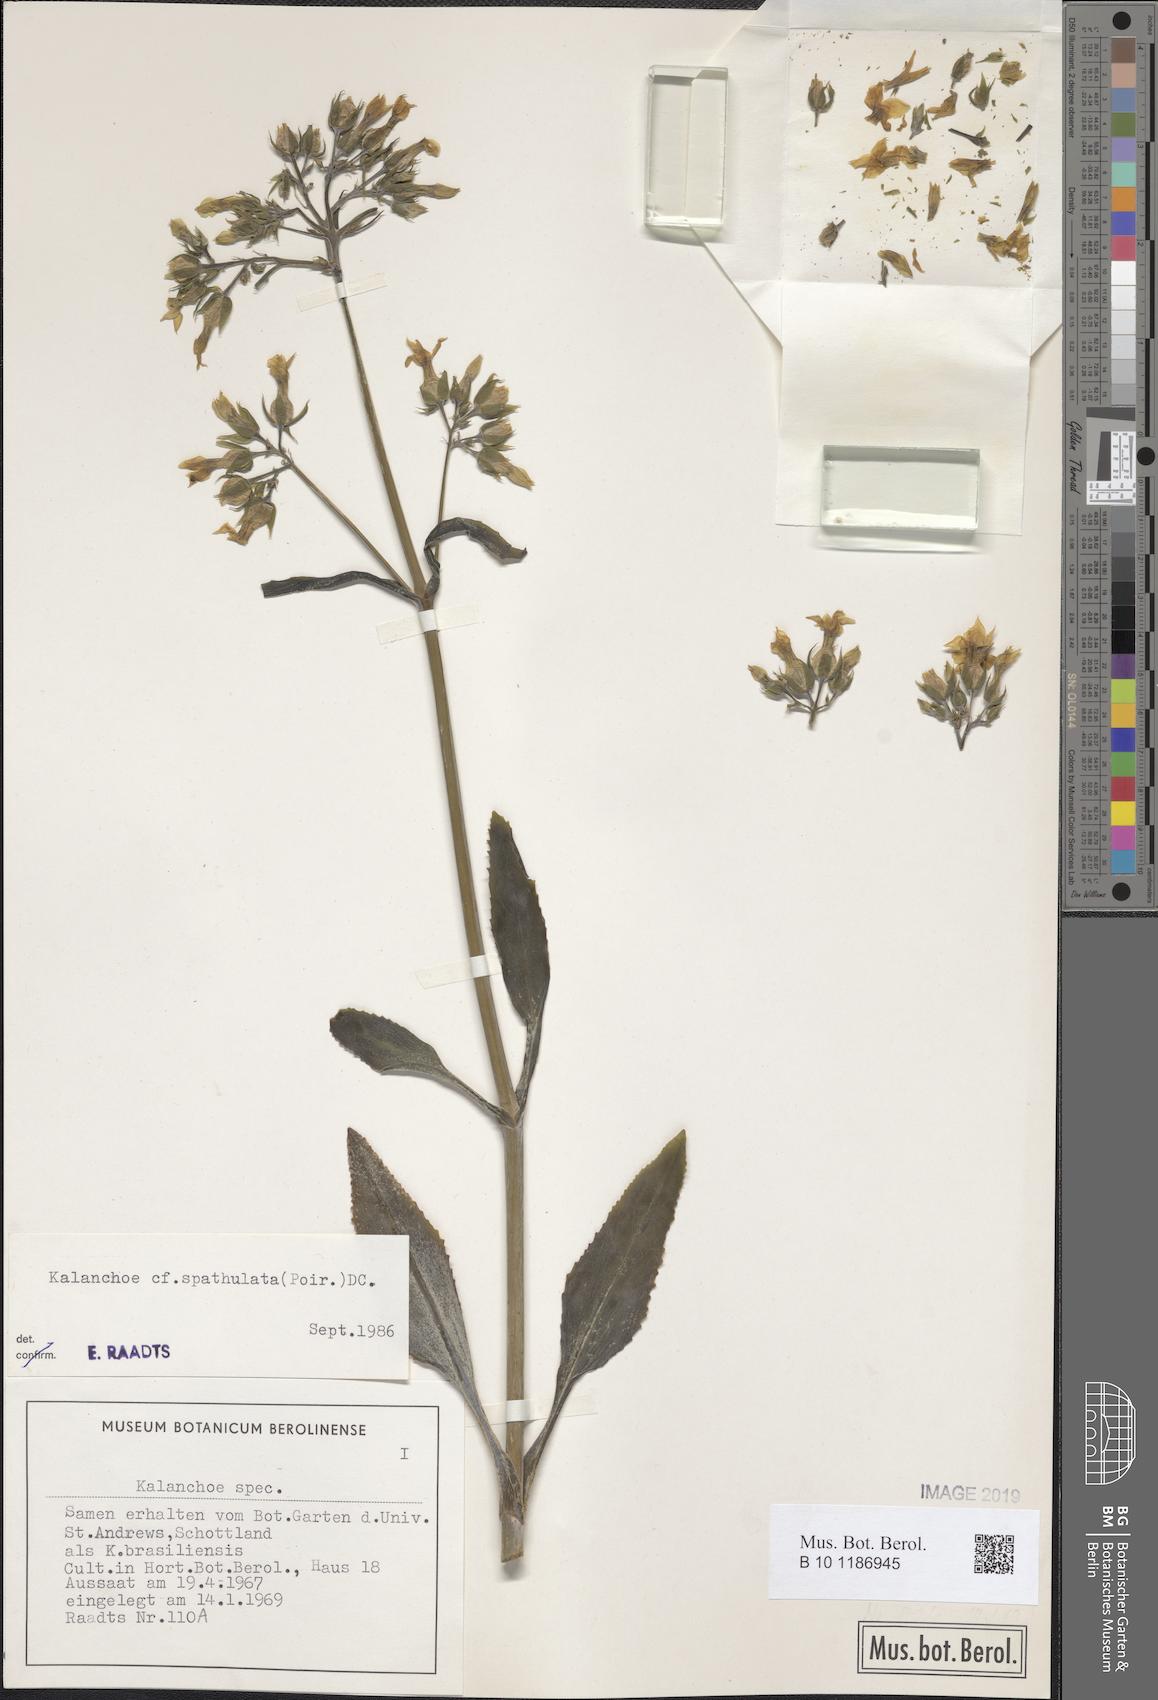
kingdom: Plantae
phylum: Tracheophyta
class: Magnoliopsida
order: Saxifragales
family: Crassulaceae
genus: Kalanchoe
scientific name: Kalanchoe integra
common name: Neverdie
